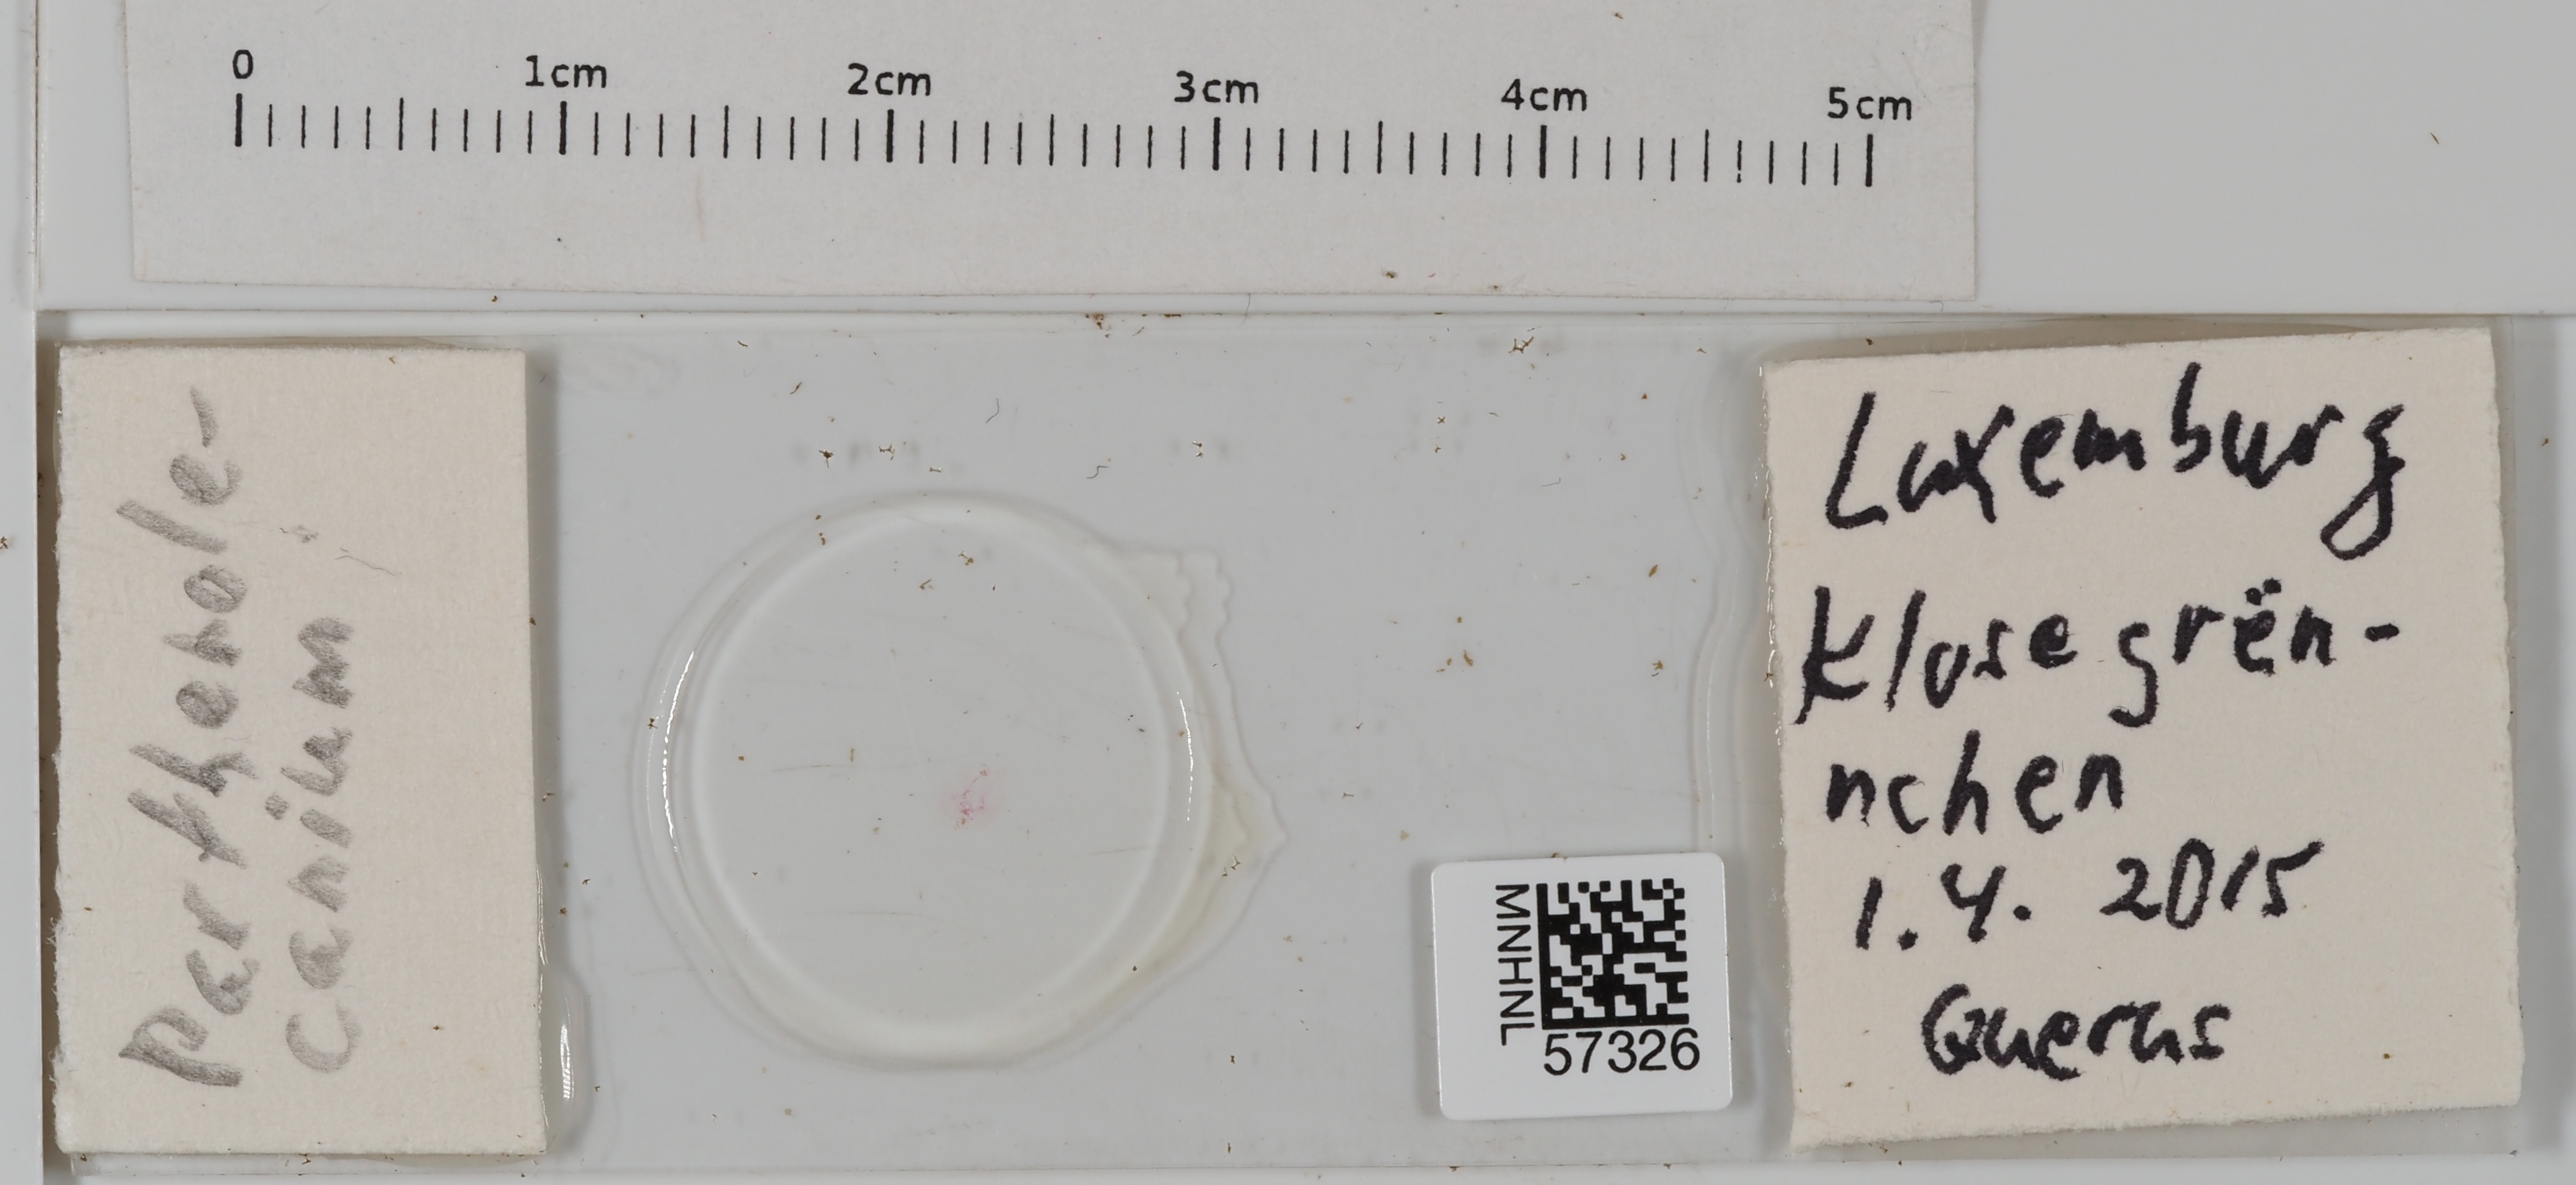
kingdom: Animalia
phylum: Arthropoda
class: Insecta
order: Hemiptera
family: Coccidae
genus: Parthenolecanium
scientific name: Parthenolecanium
